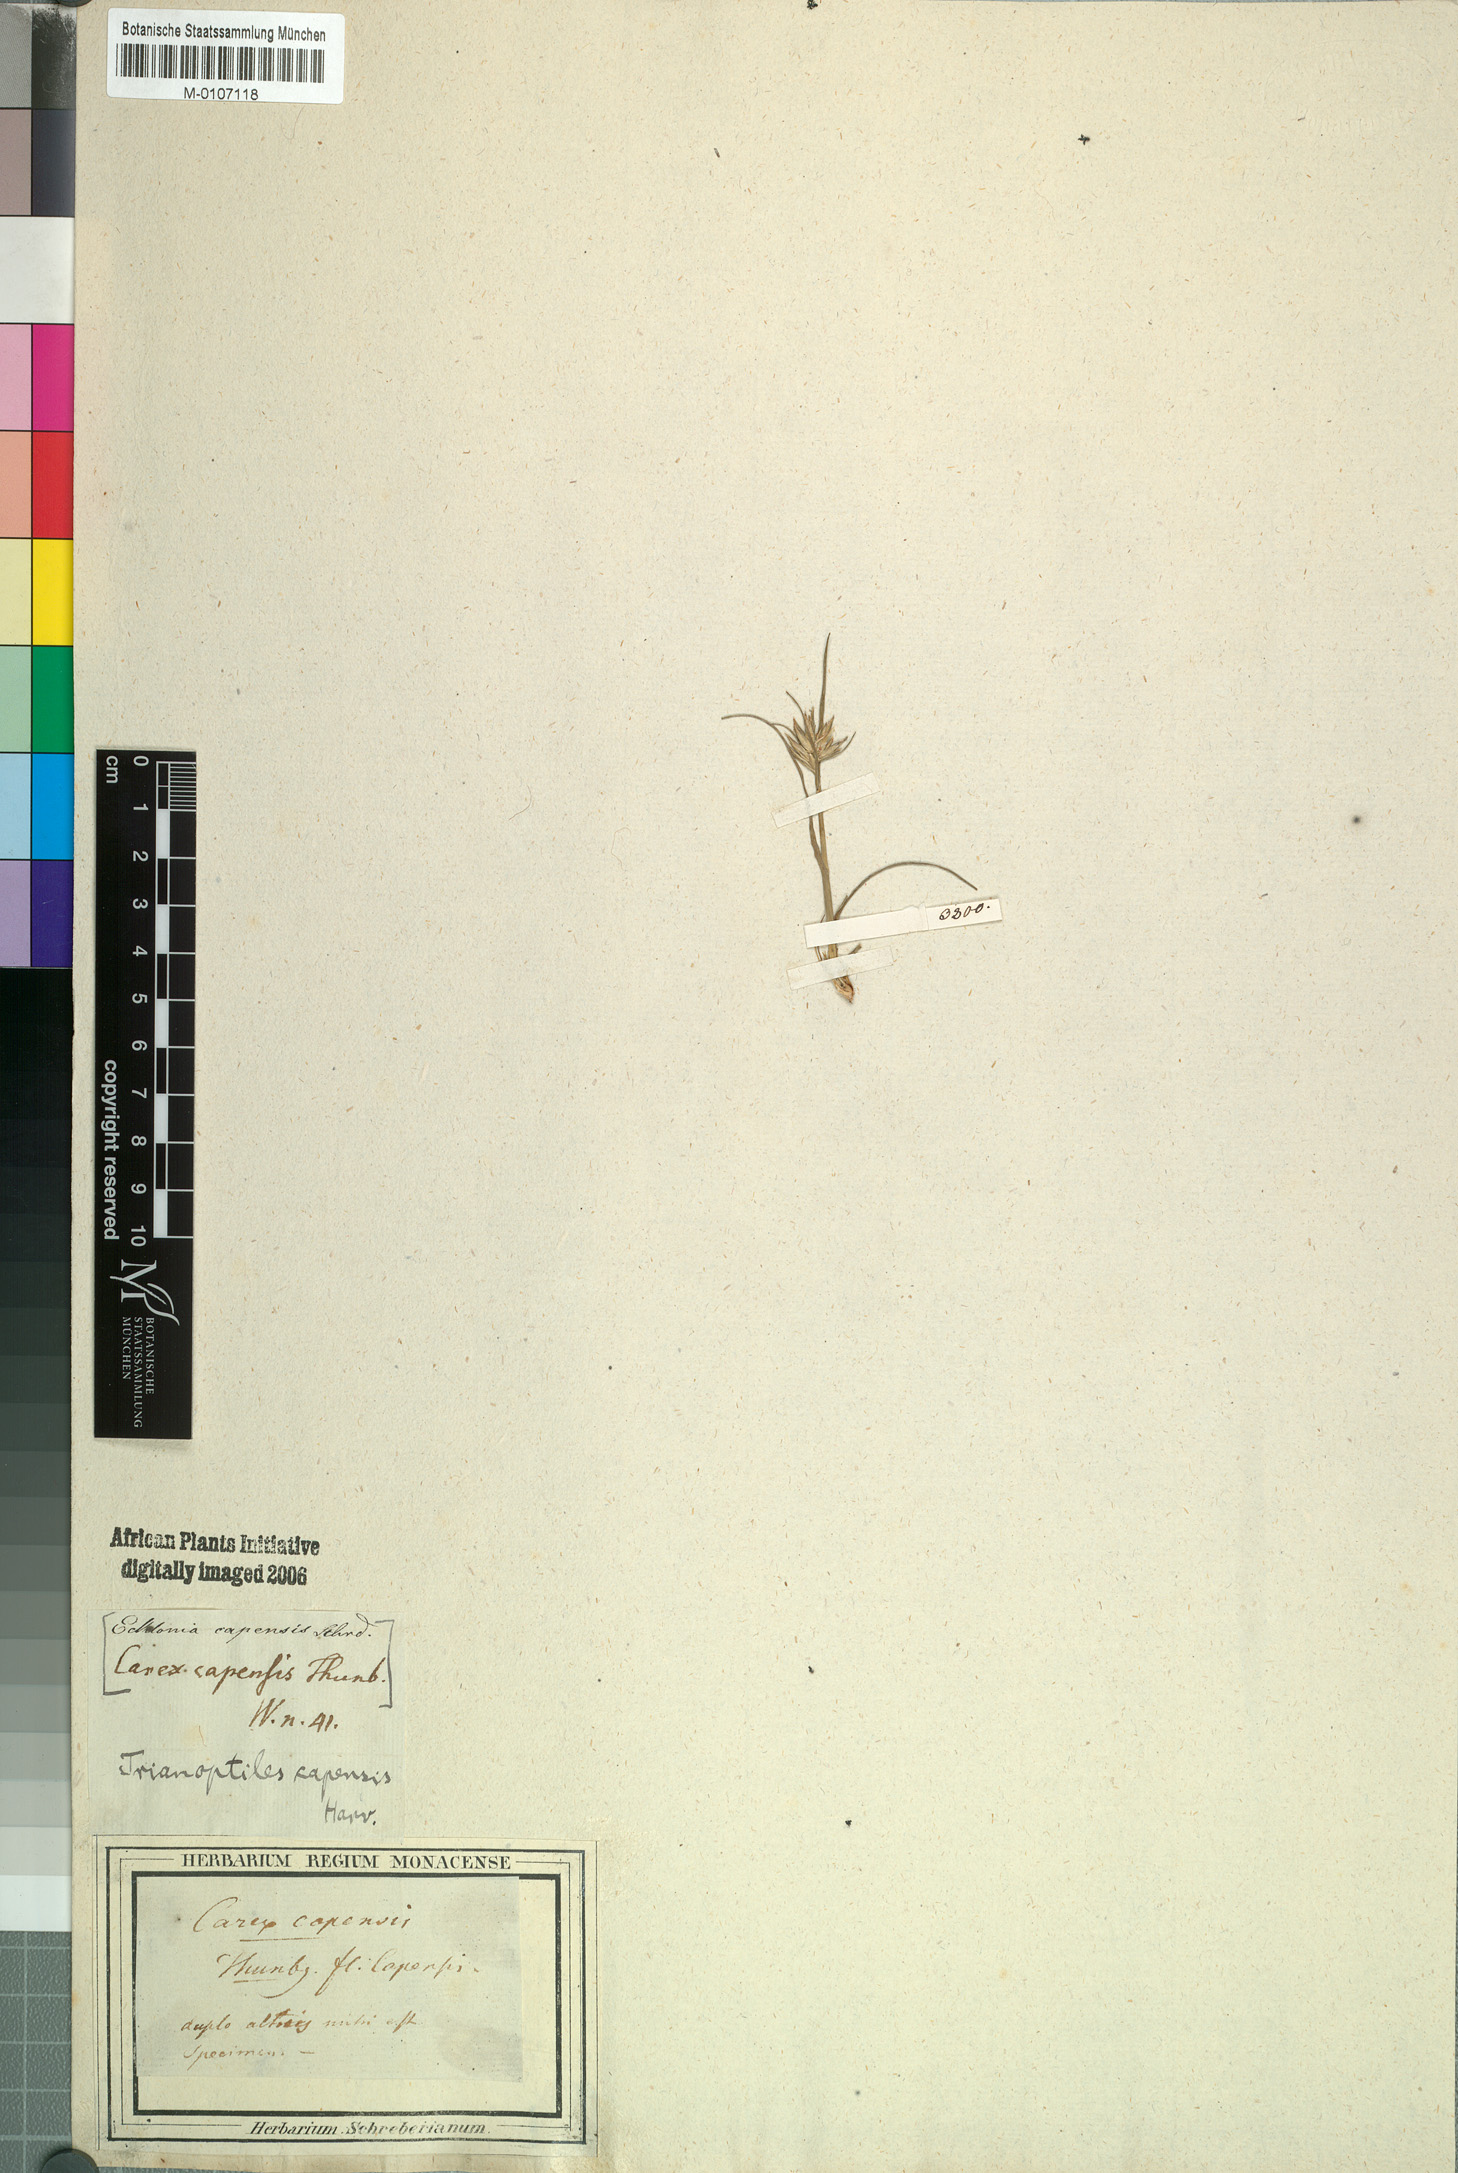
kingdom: Plantae
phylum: Tracheophyta
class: Liliopsida
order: Poales
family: Cyperaceae
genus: Trianoptiles
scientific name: Trianoptiles capensis
